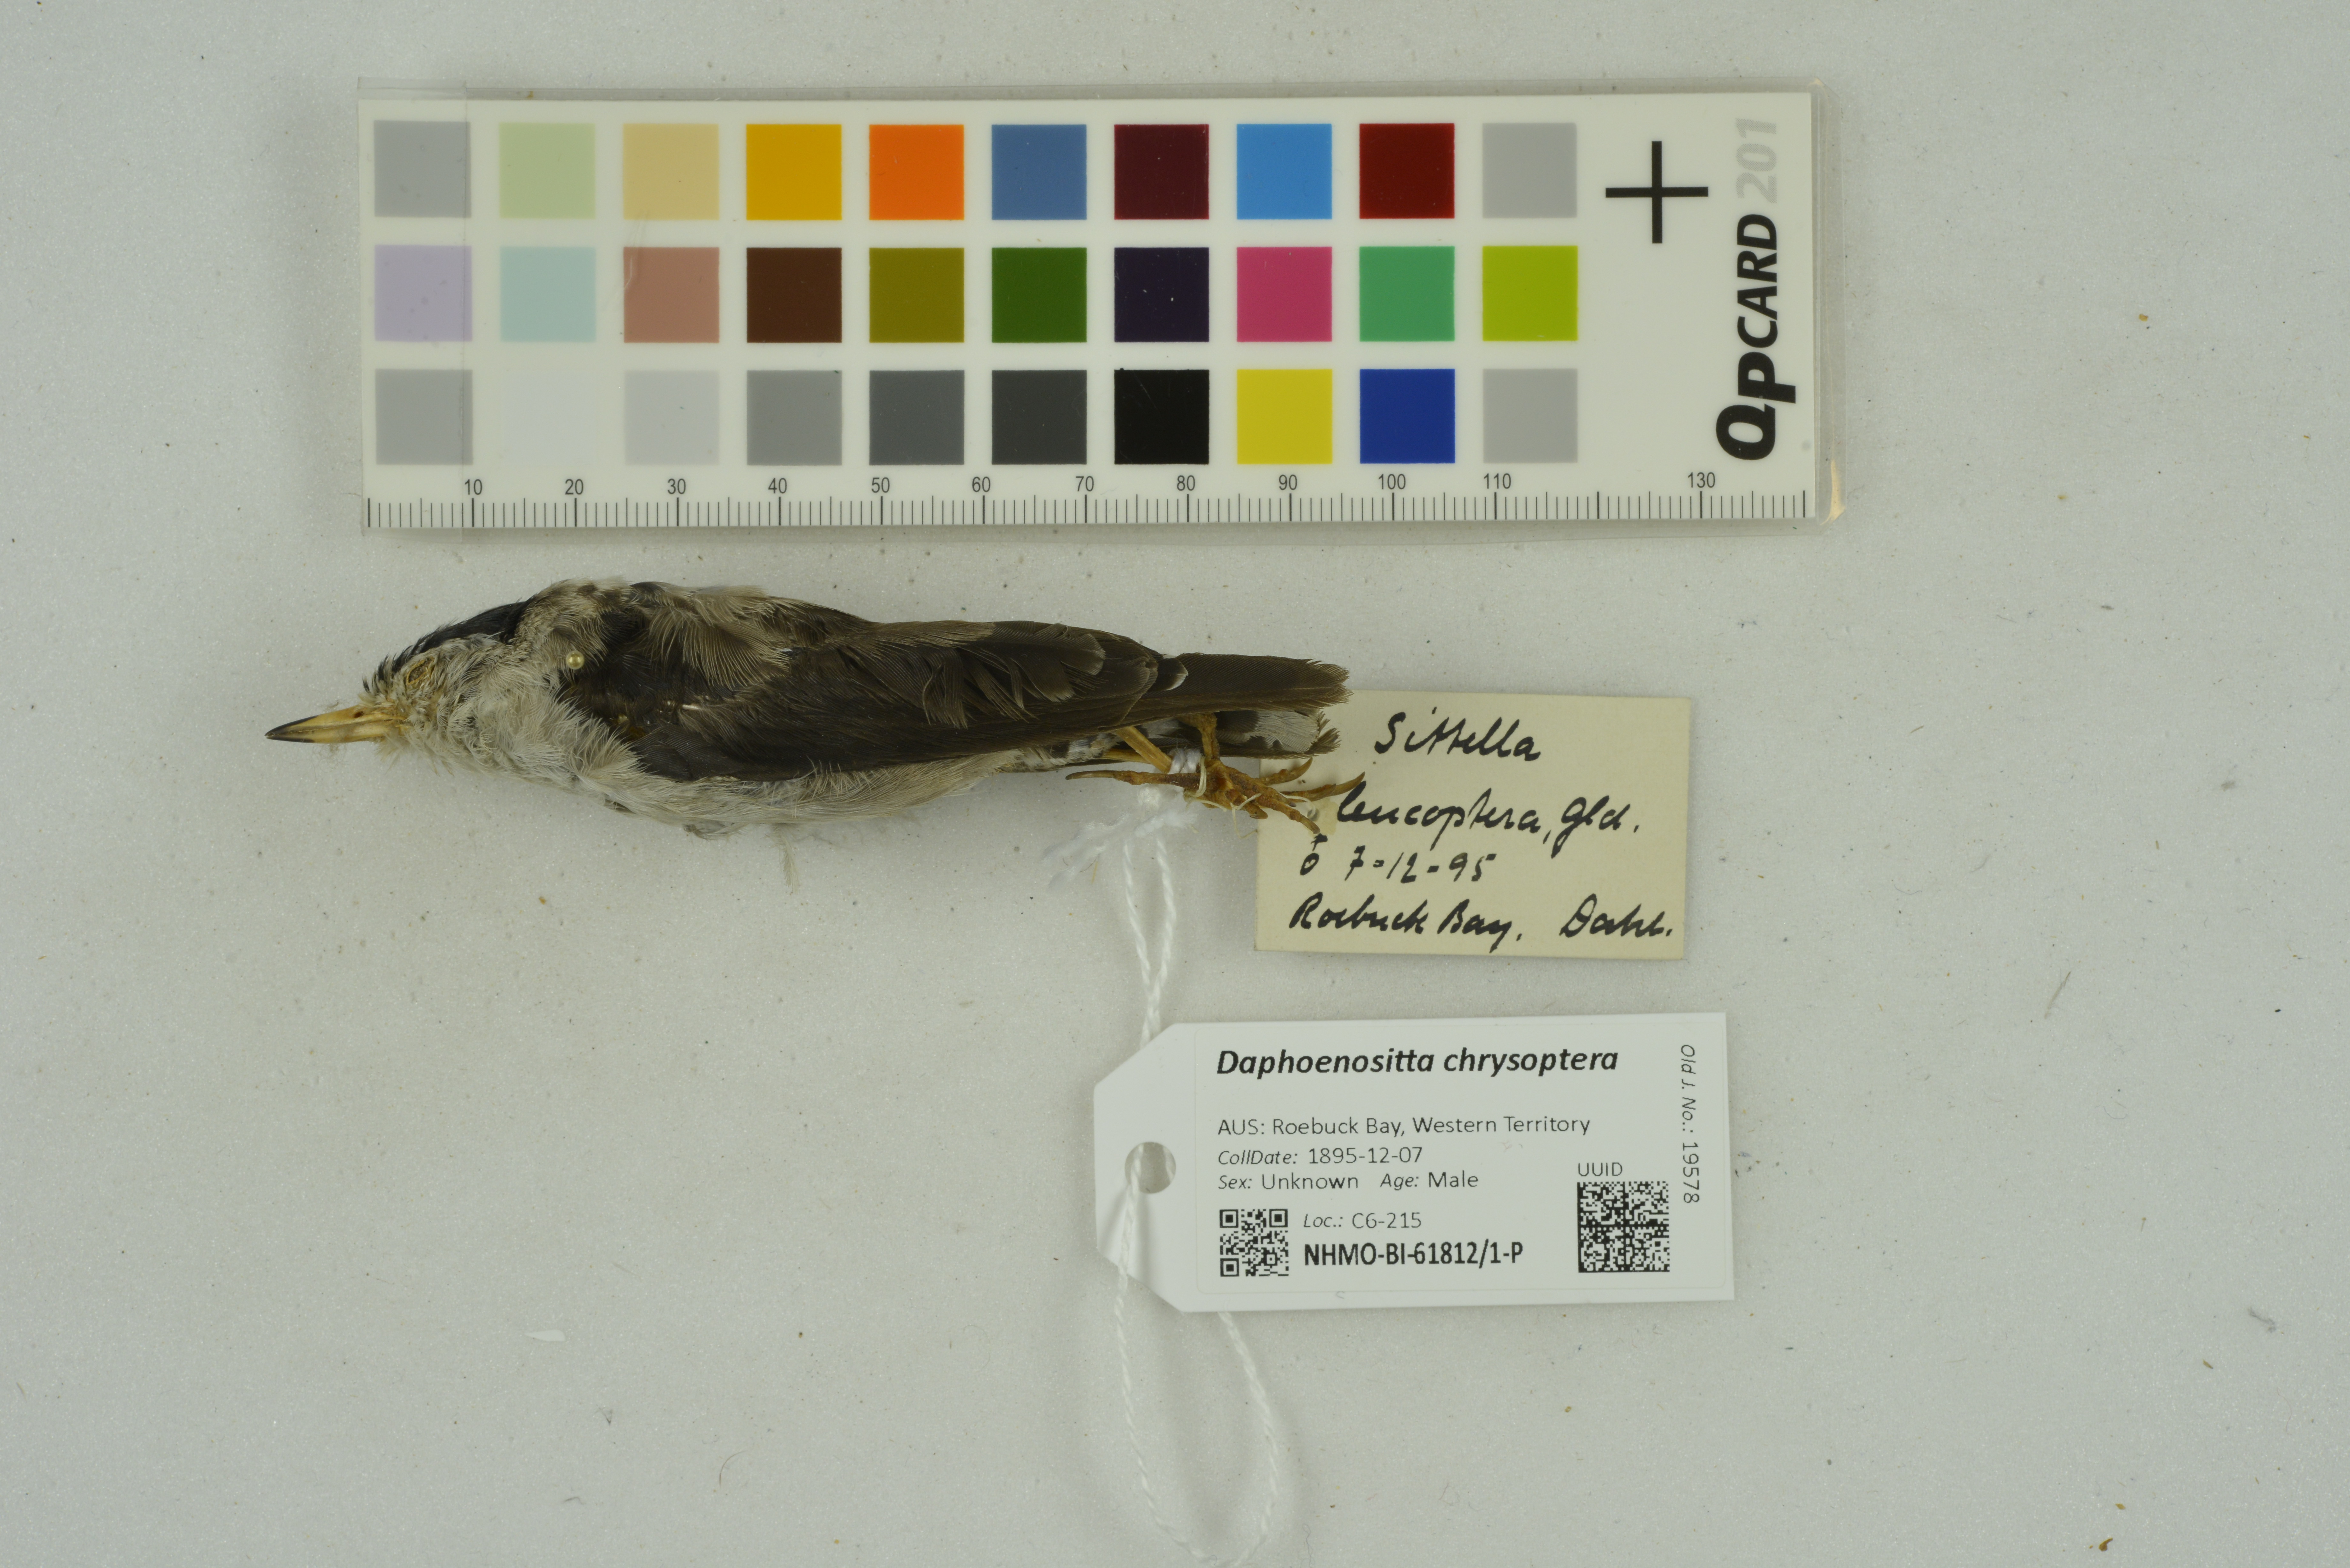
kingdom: Animalia
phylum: Chordata
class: Aves
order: Passeriformes
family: Neosittidae
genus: Daphoenositta
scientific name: Daphoenositta chrysoptera
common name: Varied sittella
